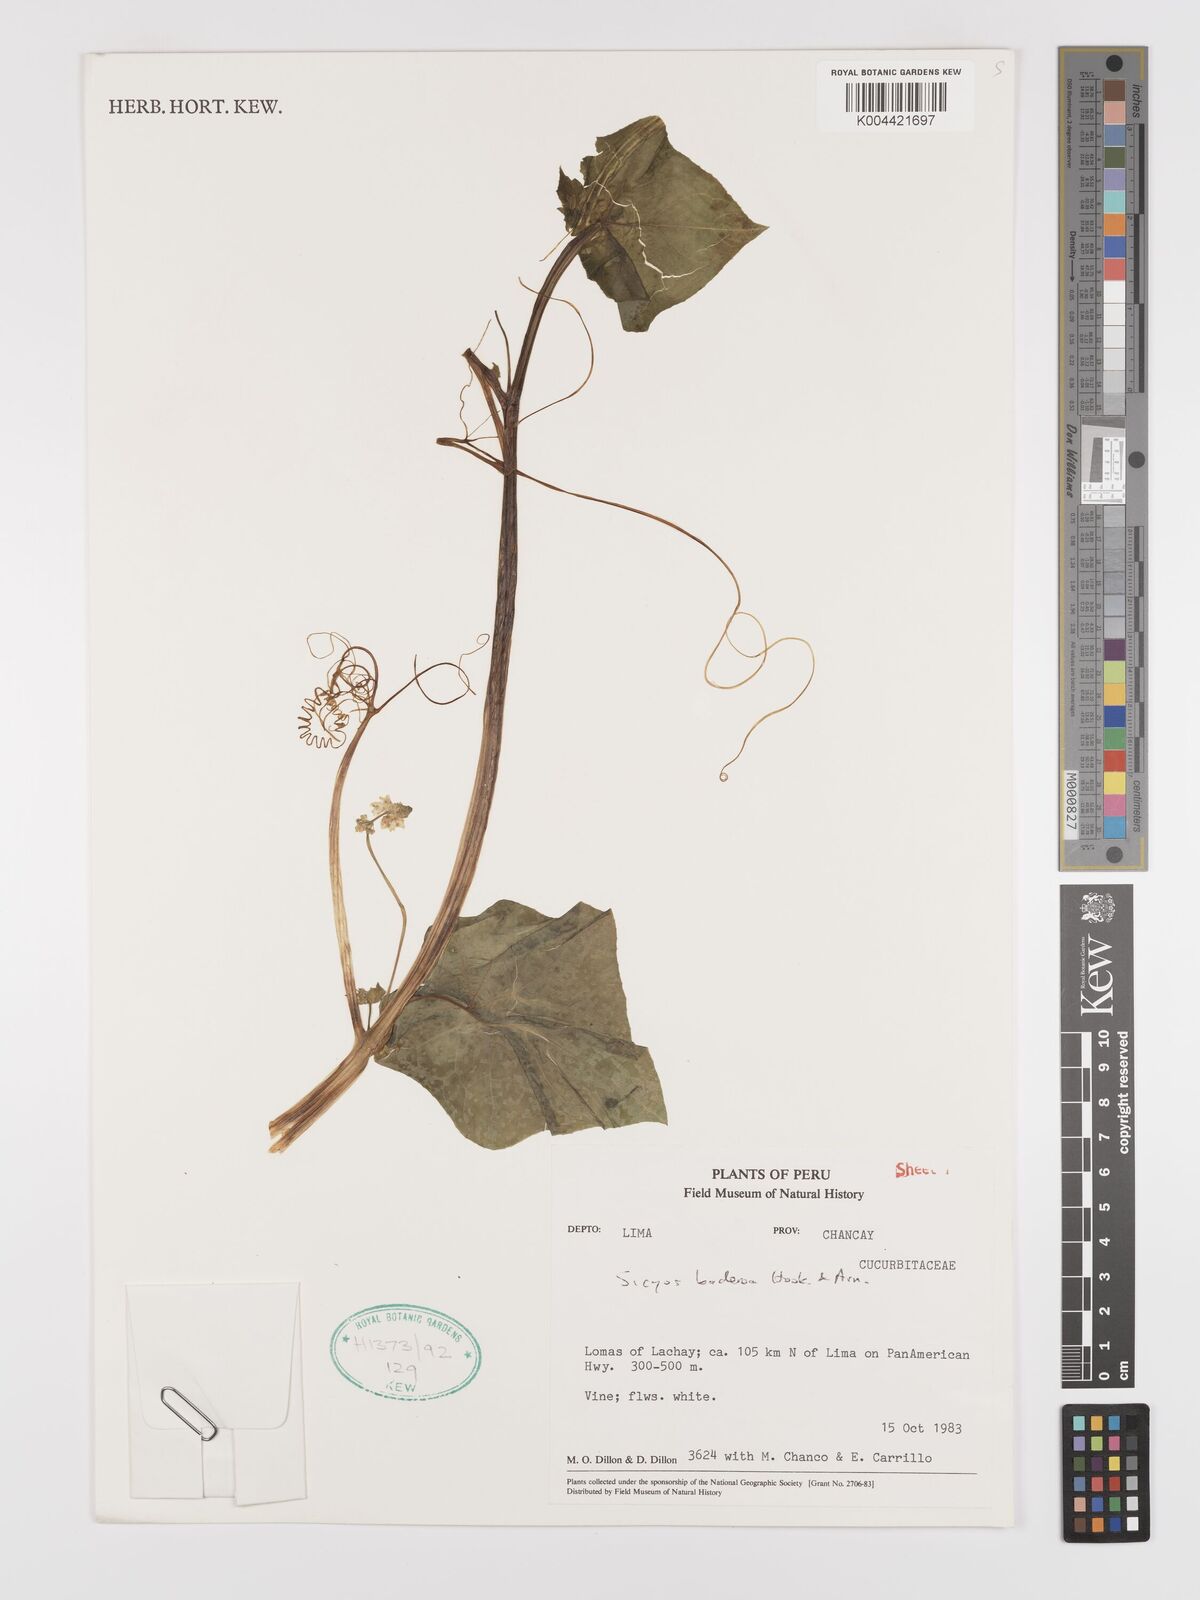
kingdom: Plantae
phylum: Tracheophyta
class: Magnoliopsida
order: Cucurbitales
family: Cucurbitaceae
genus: Sicyos
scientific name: Sicyos baderoa
